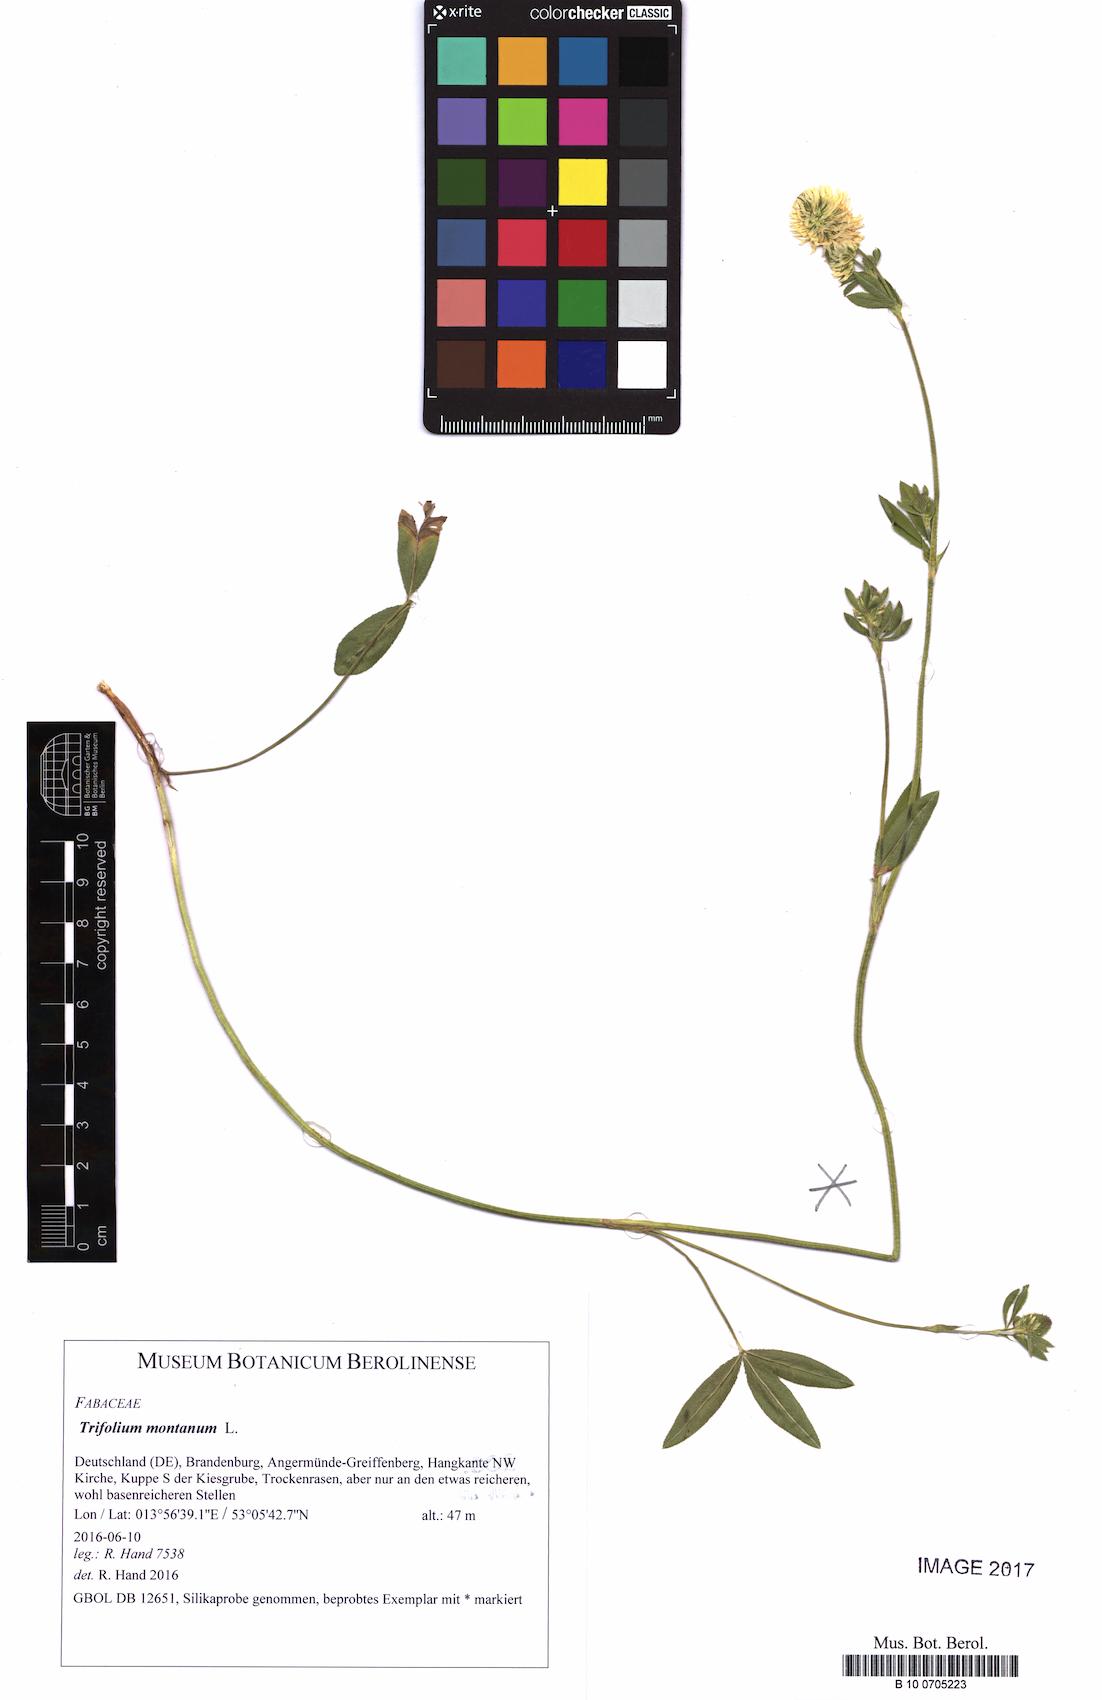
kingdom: Plantae
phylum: Tracheophyta
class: Magnoliopsida
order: Fabales
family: Fabaceae
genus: Trifolium
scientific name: Trifolium montanum
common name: Mountain clover
